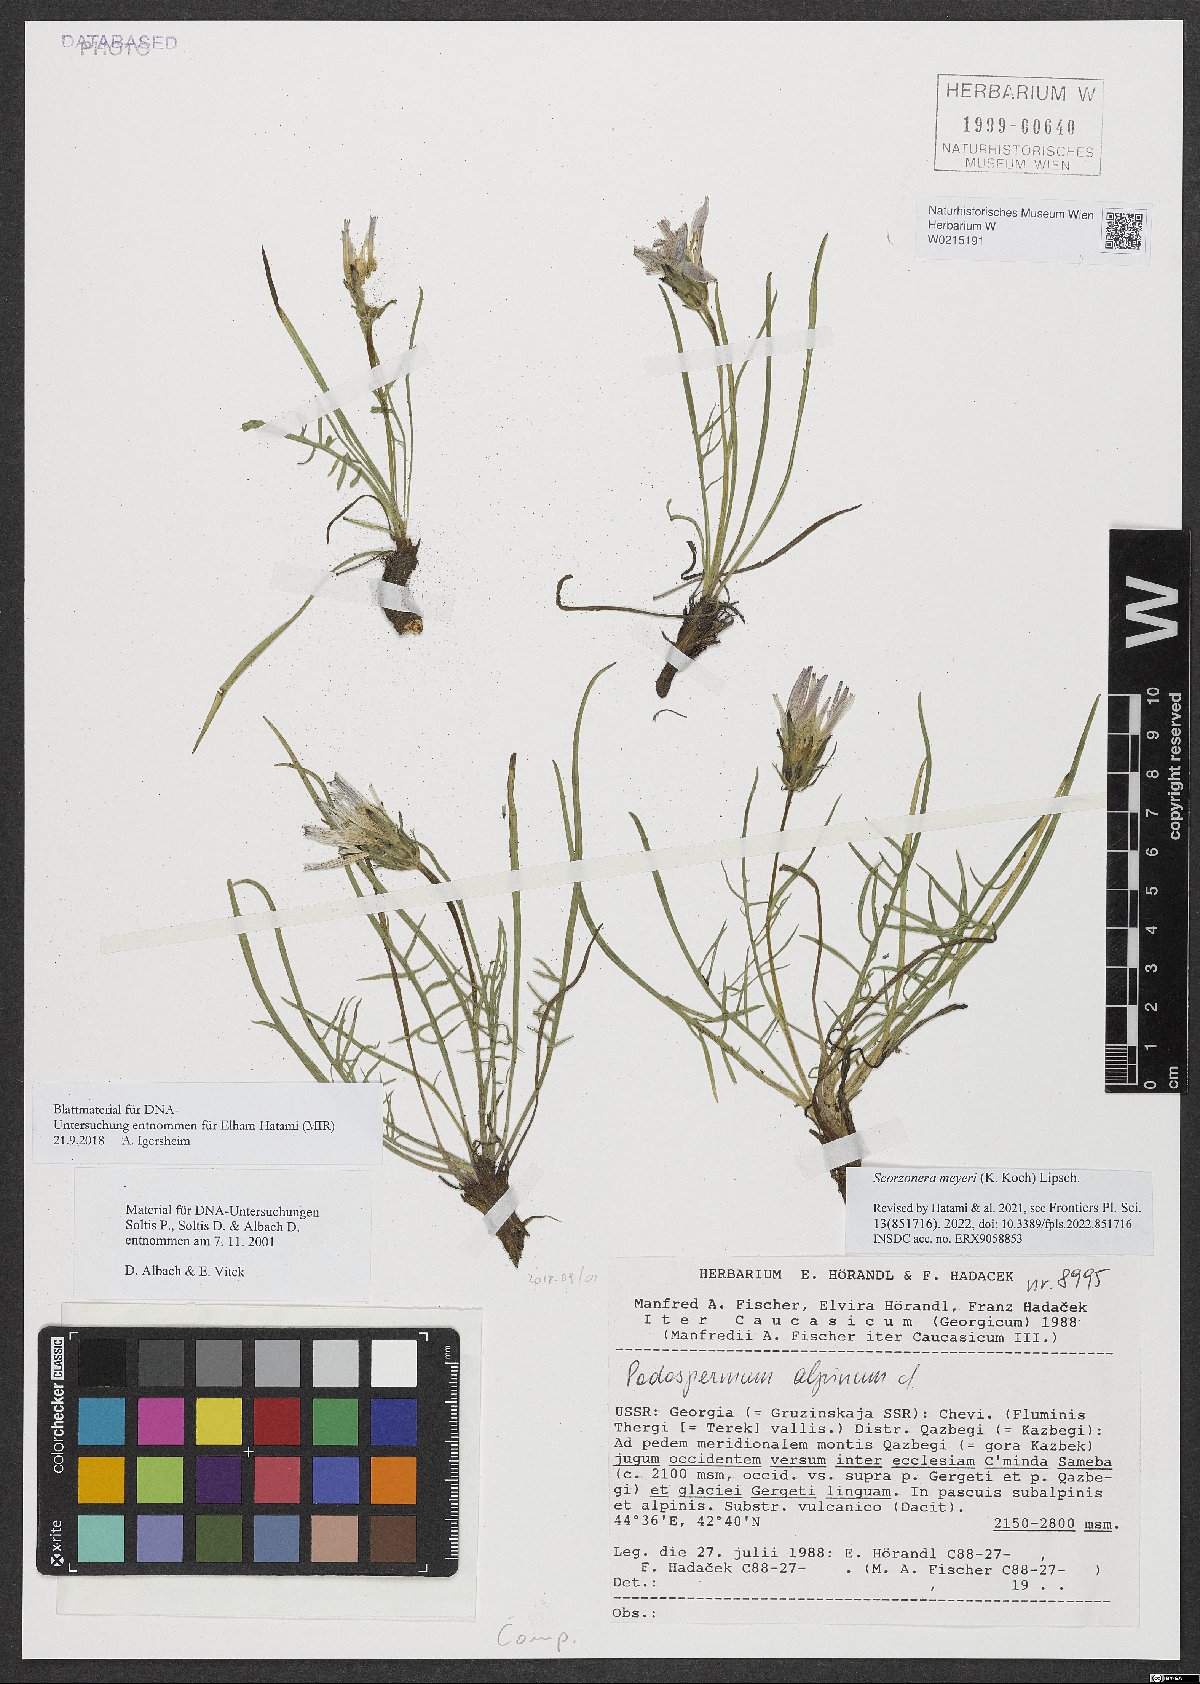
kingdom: Plantae
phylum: Tracheophyta
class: Magnoliopsida
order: Asterales
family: Asteraceae
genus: Scorzonera
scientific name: Scorzonera meyeri
